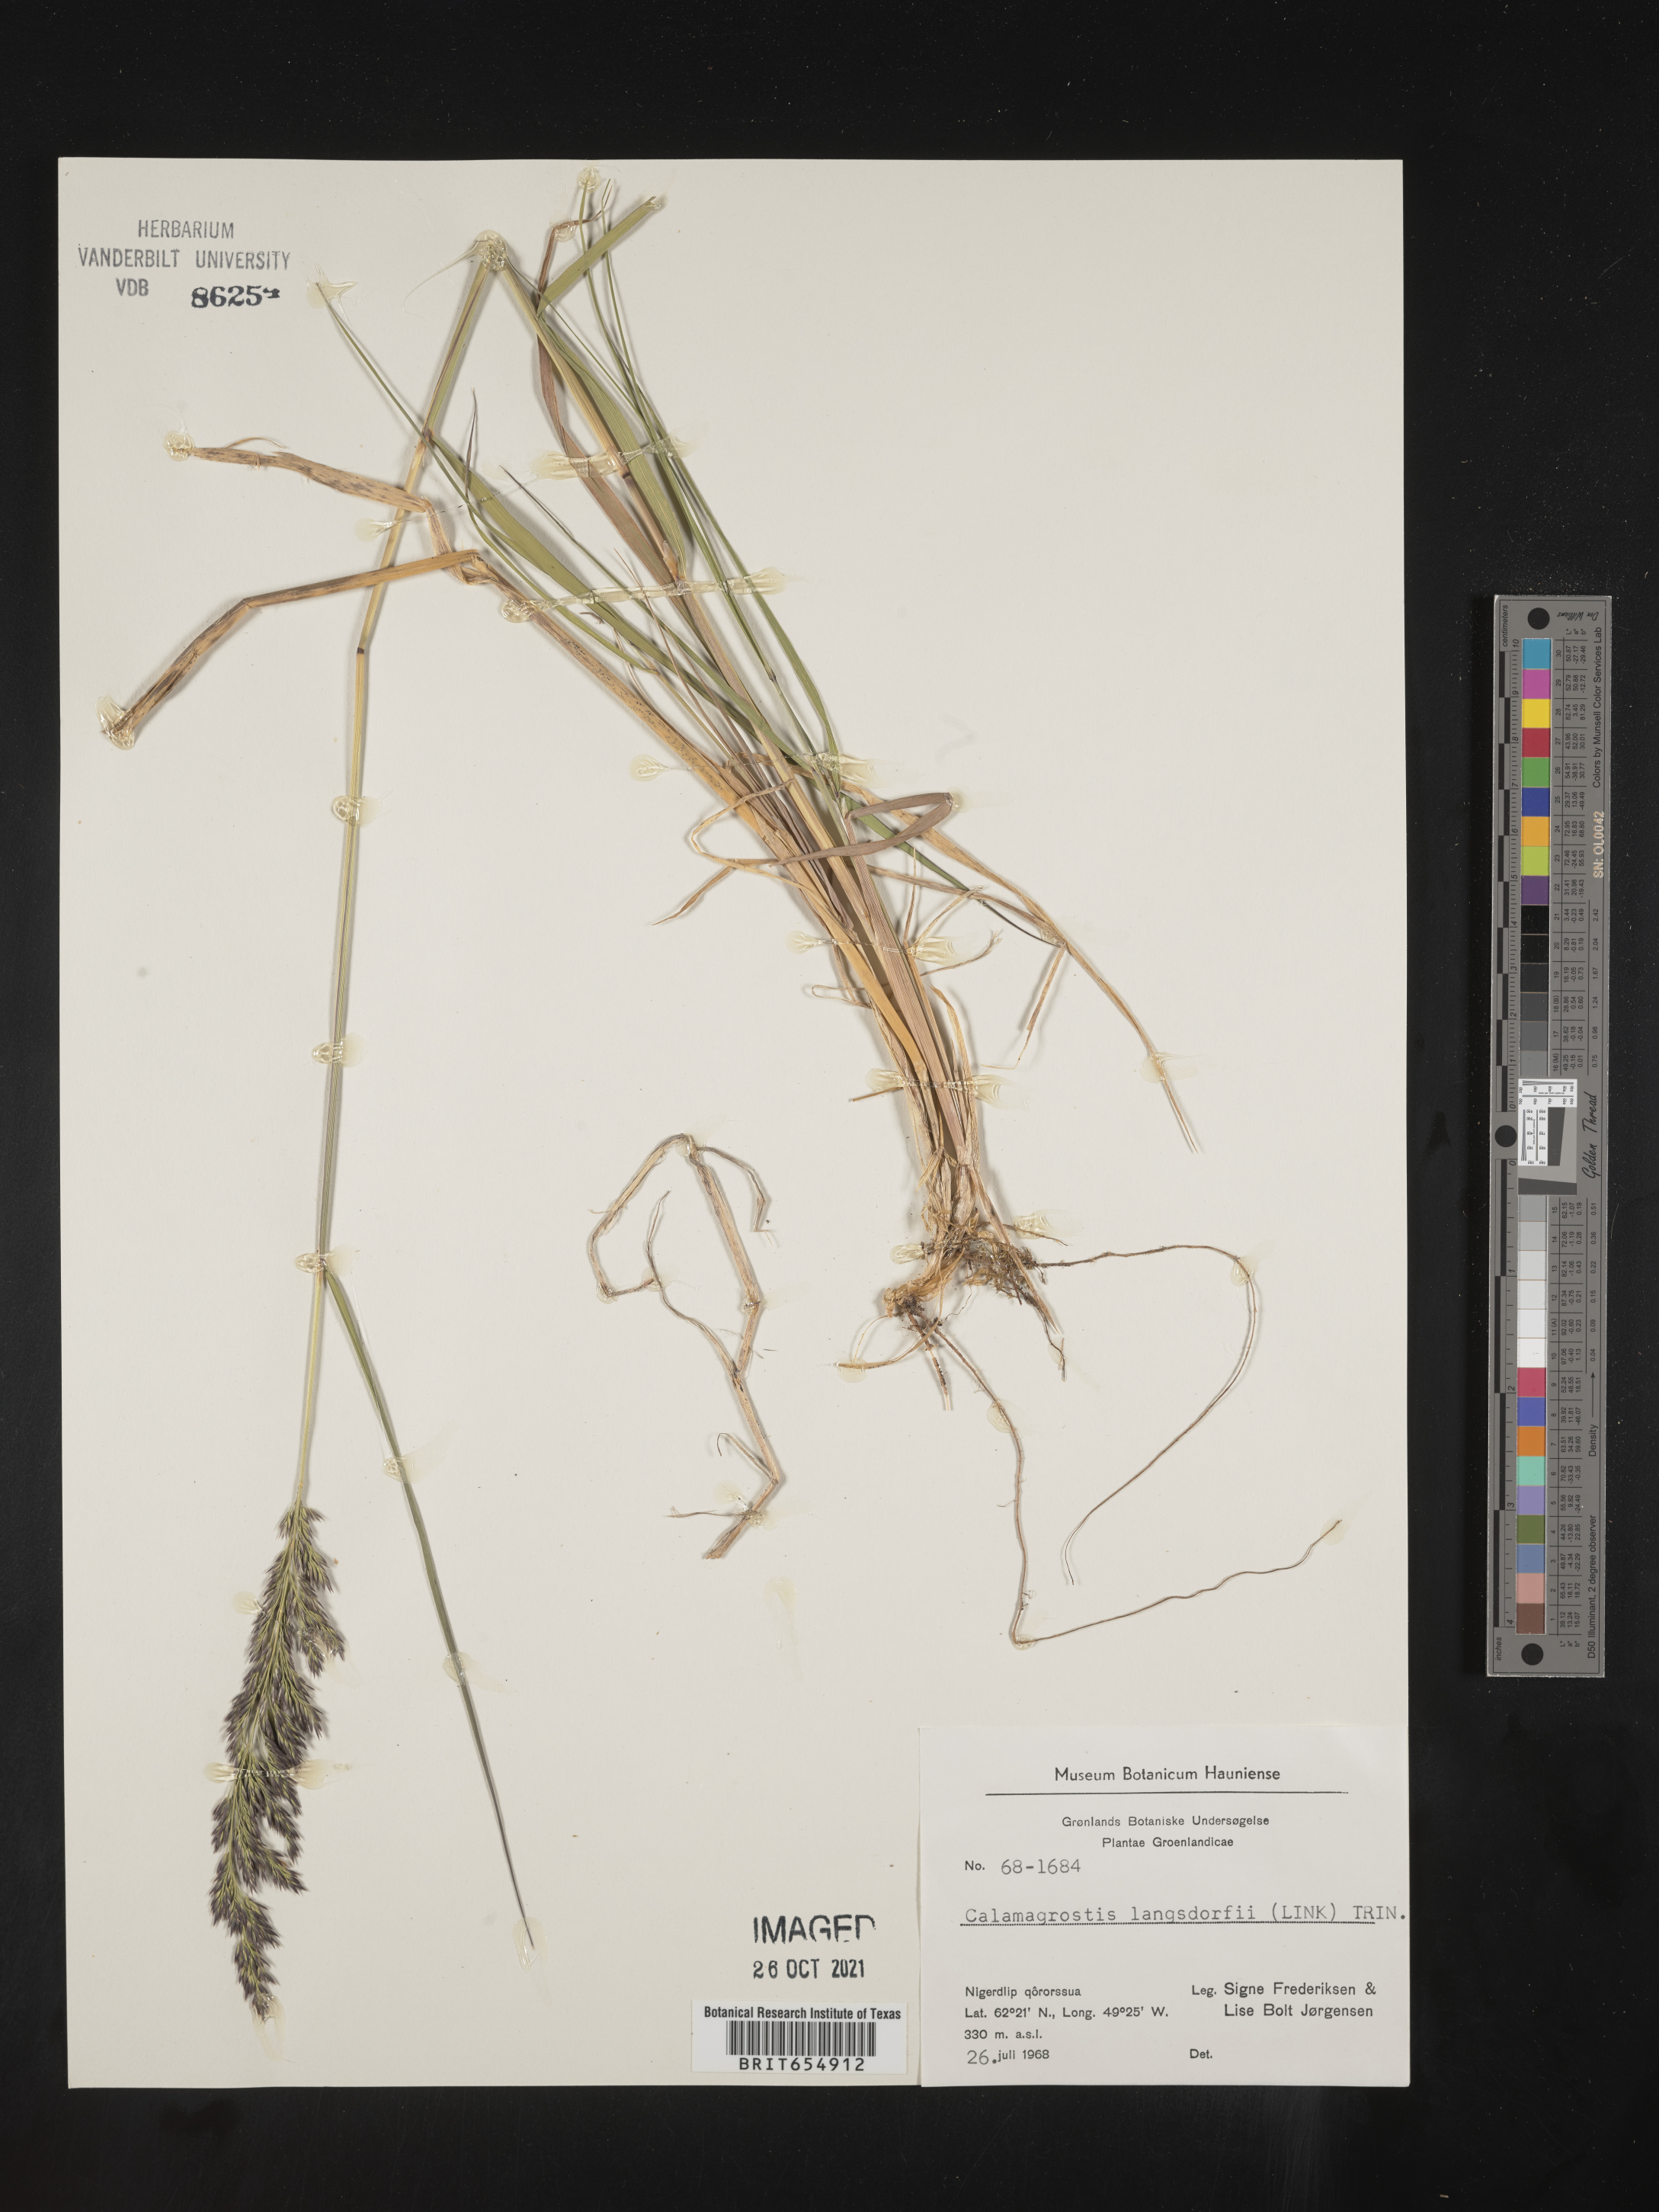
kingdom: Plantae
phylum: Tracheophyta
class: Liliopsida
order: Poales
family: Poaceae
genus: Calamagrostis
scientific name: Calamagrostis
